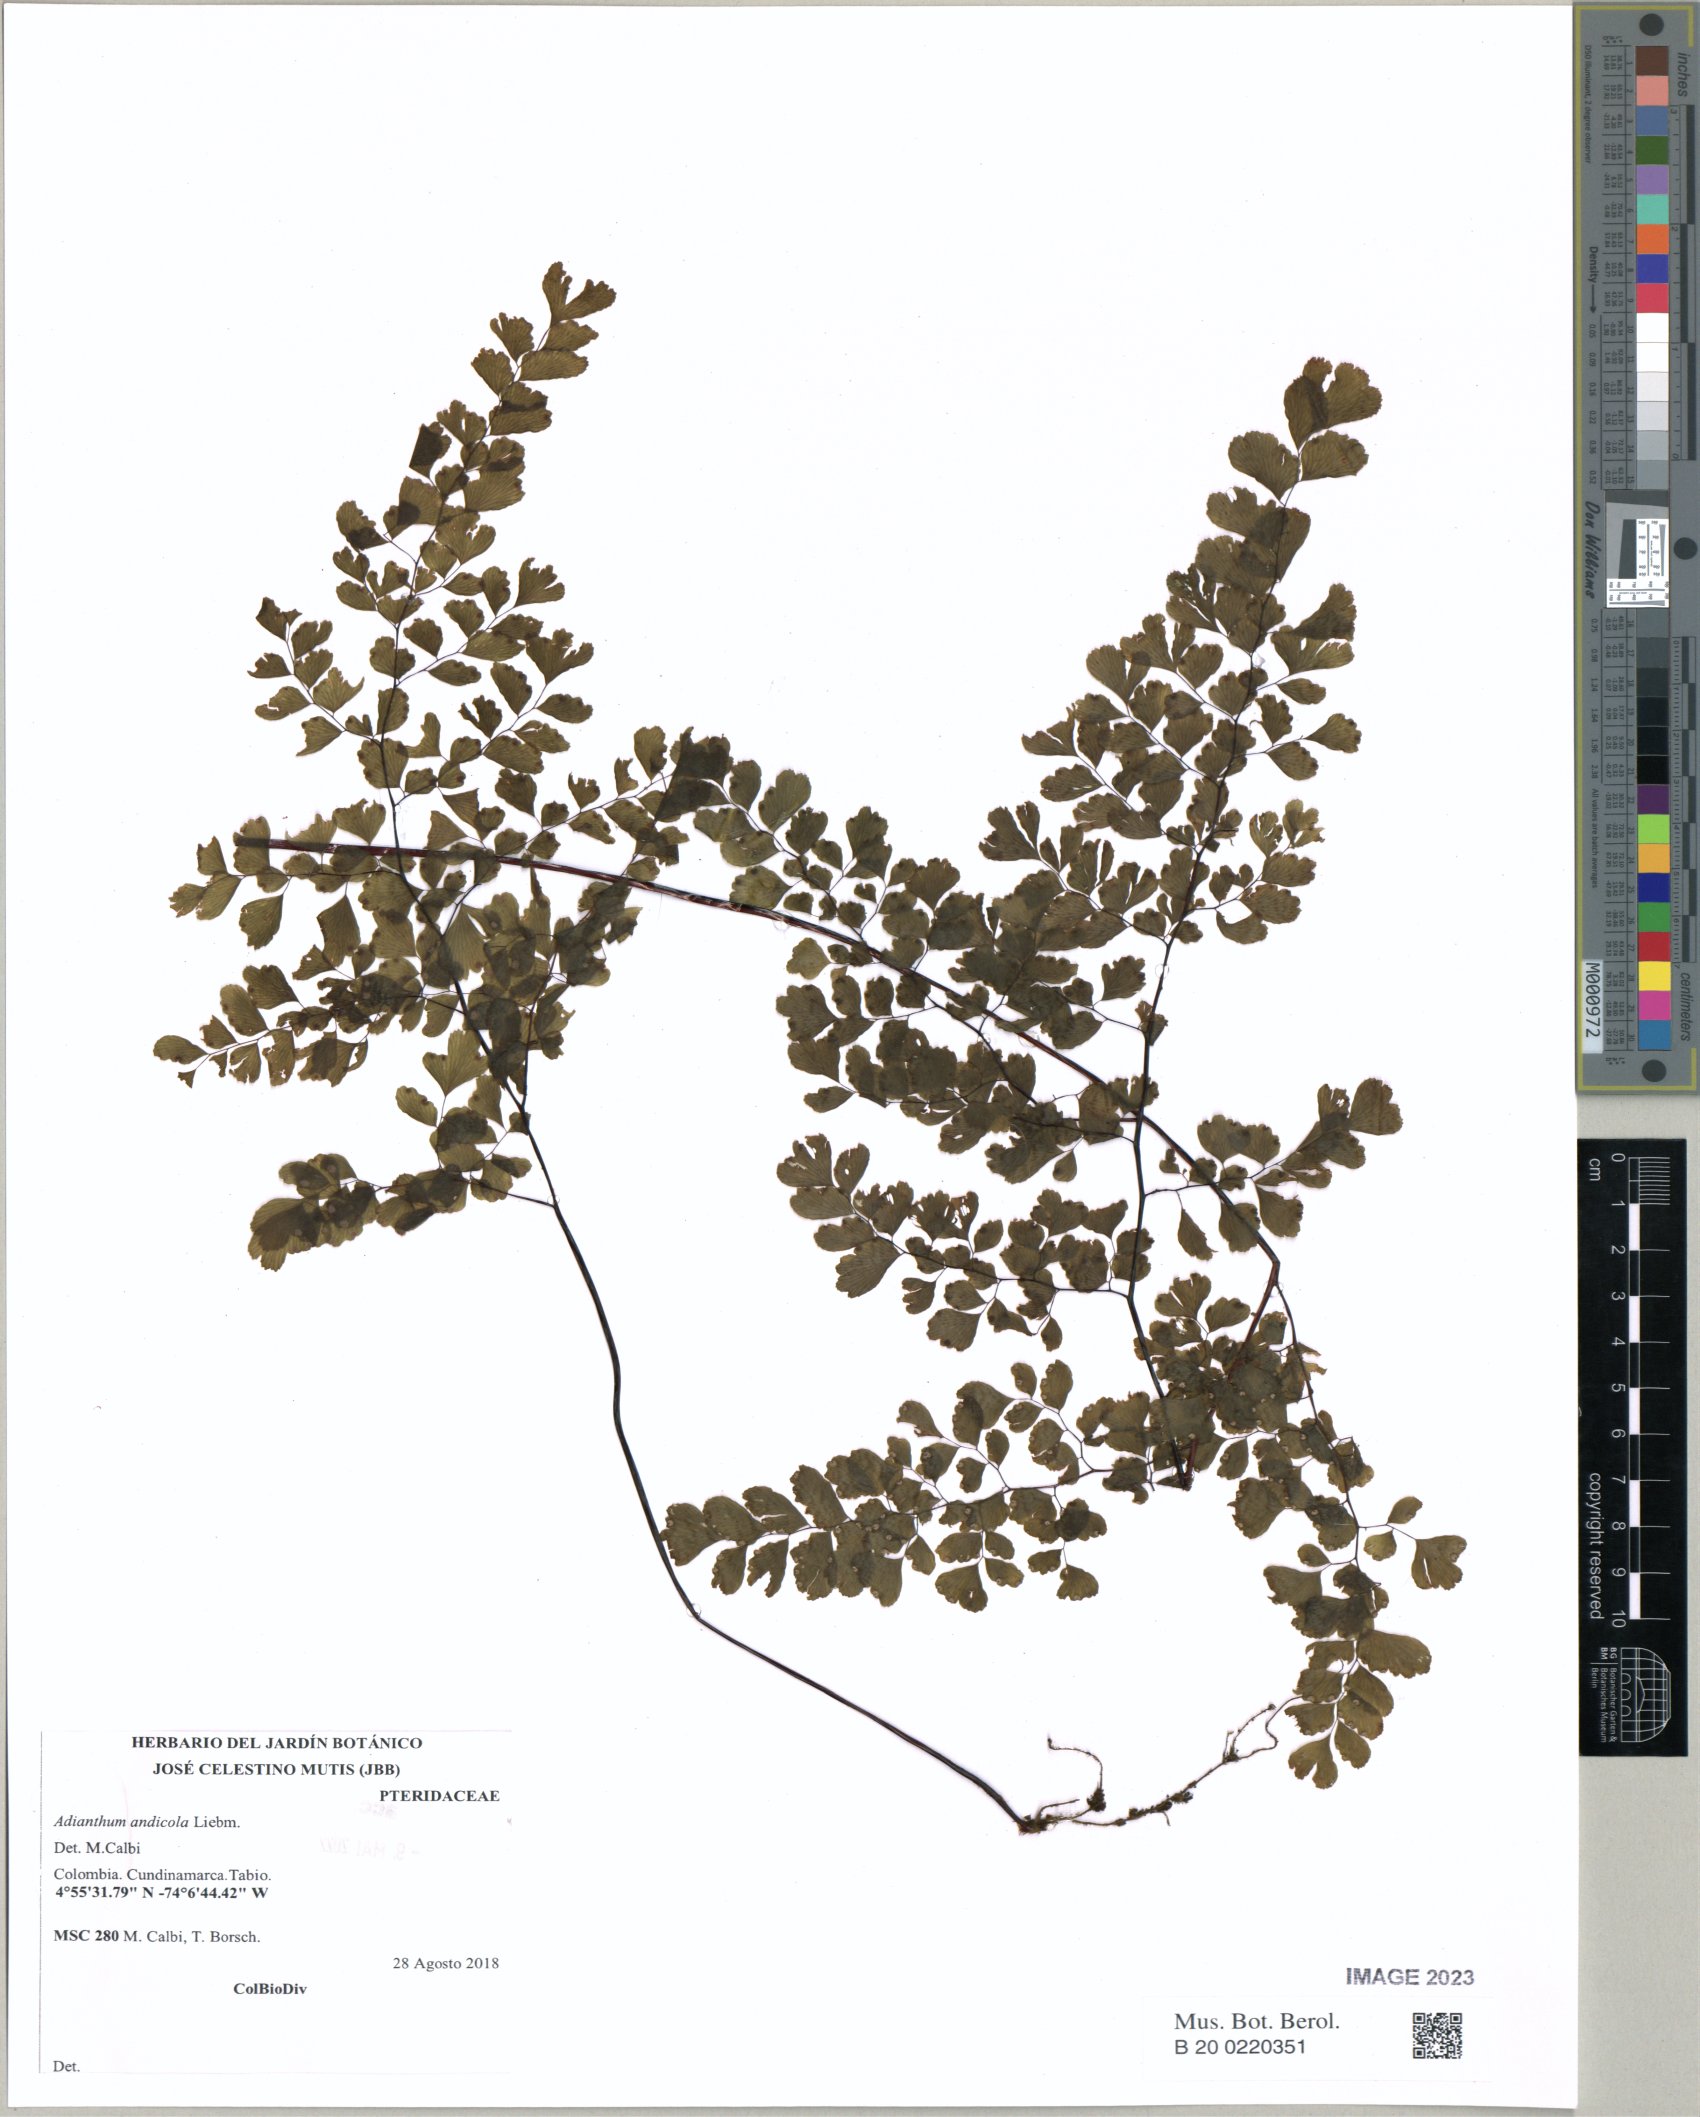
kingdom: Plantae
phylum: Tracheophyta
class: Polypodiopsida
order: Polypodiales
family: Pteridaceae
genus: Adiantum
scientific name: Adiantum andicola
